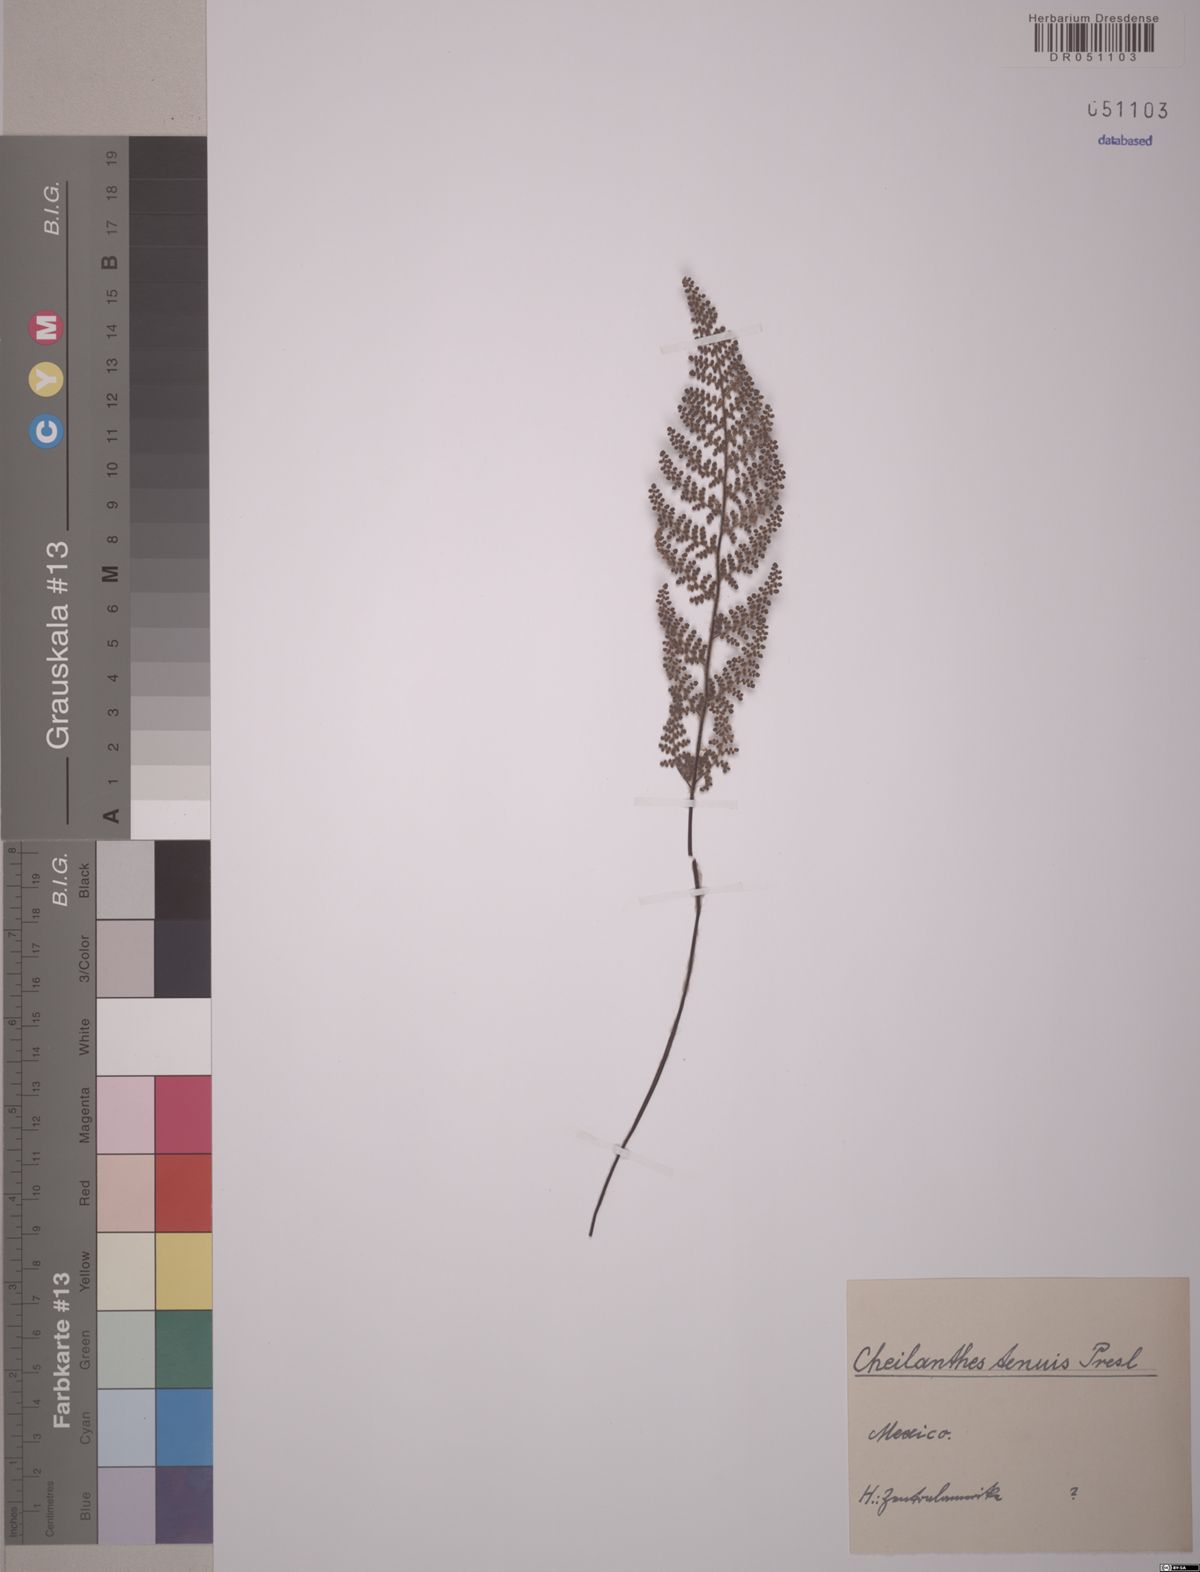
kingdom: Plantae
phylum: Tracheophyta
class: Polypodiopsida
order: Polypodiales
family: Pteridaceae
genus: Cheilanthes
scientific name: Cheilanthes tenuis
